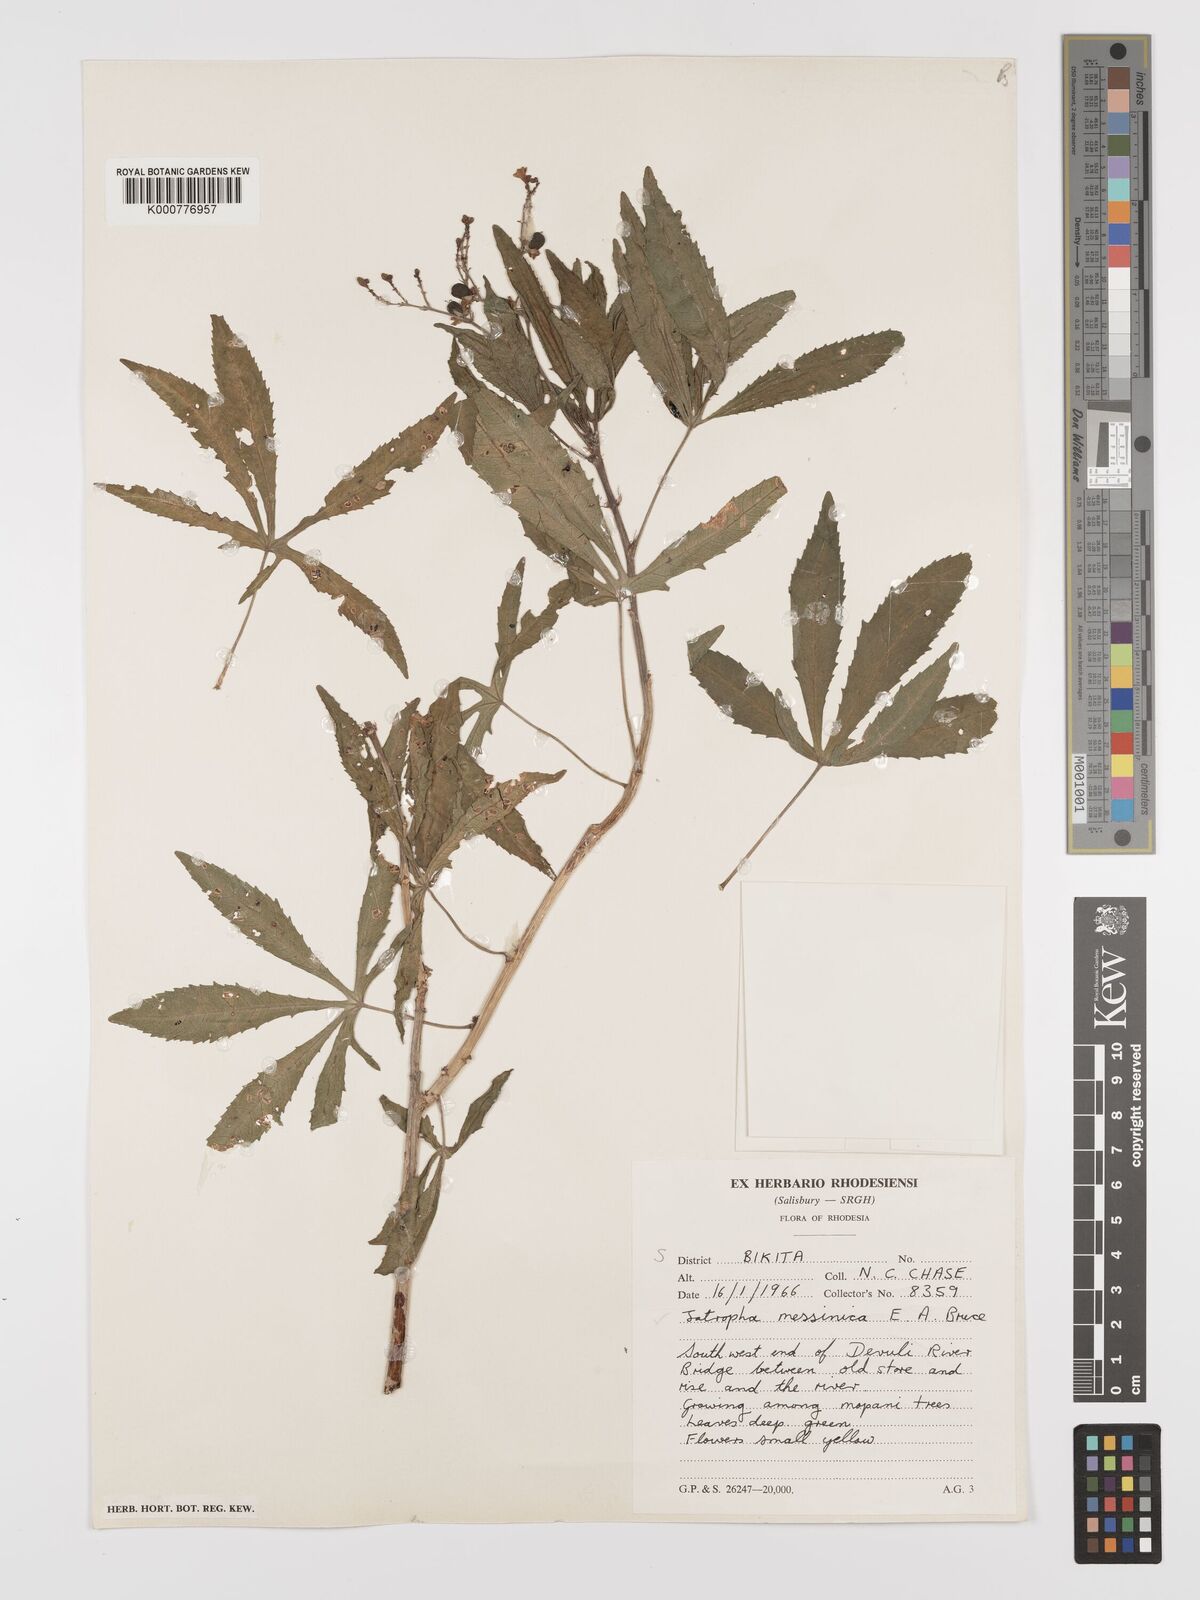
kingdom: Plantae
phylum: Tracheophyta
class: Magnoliopsida
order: Malpighiales
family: Euphorbiaceae
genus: Jatropha
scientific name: Jatropha spicata
